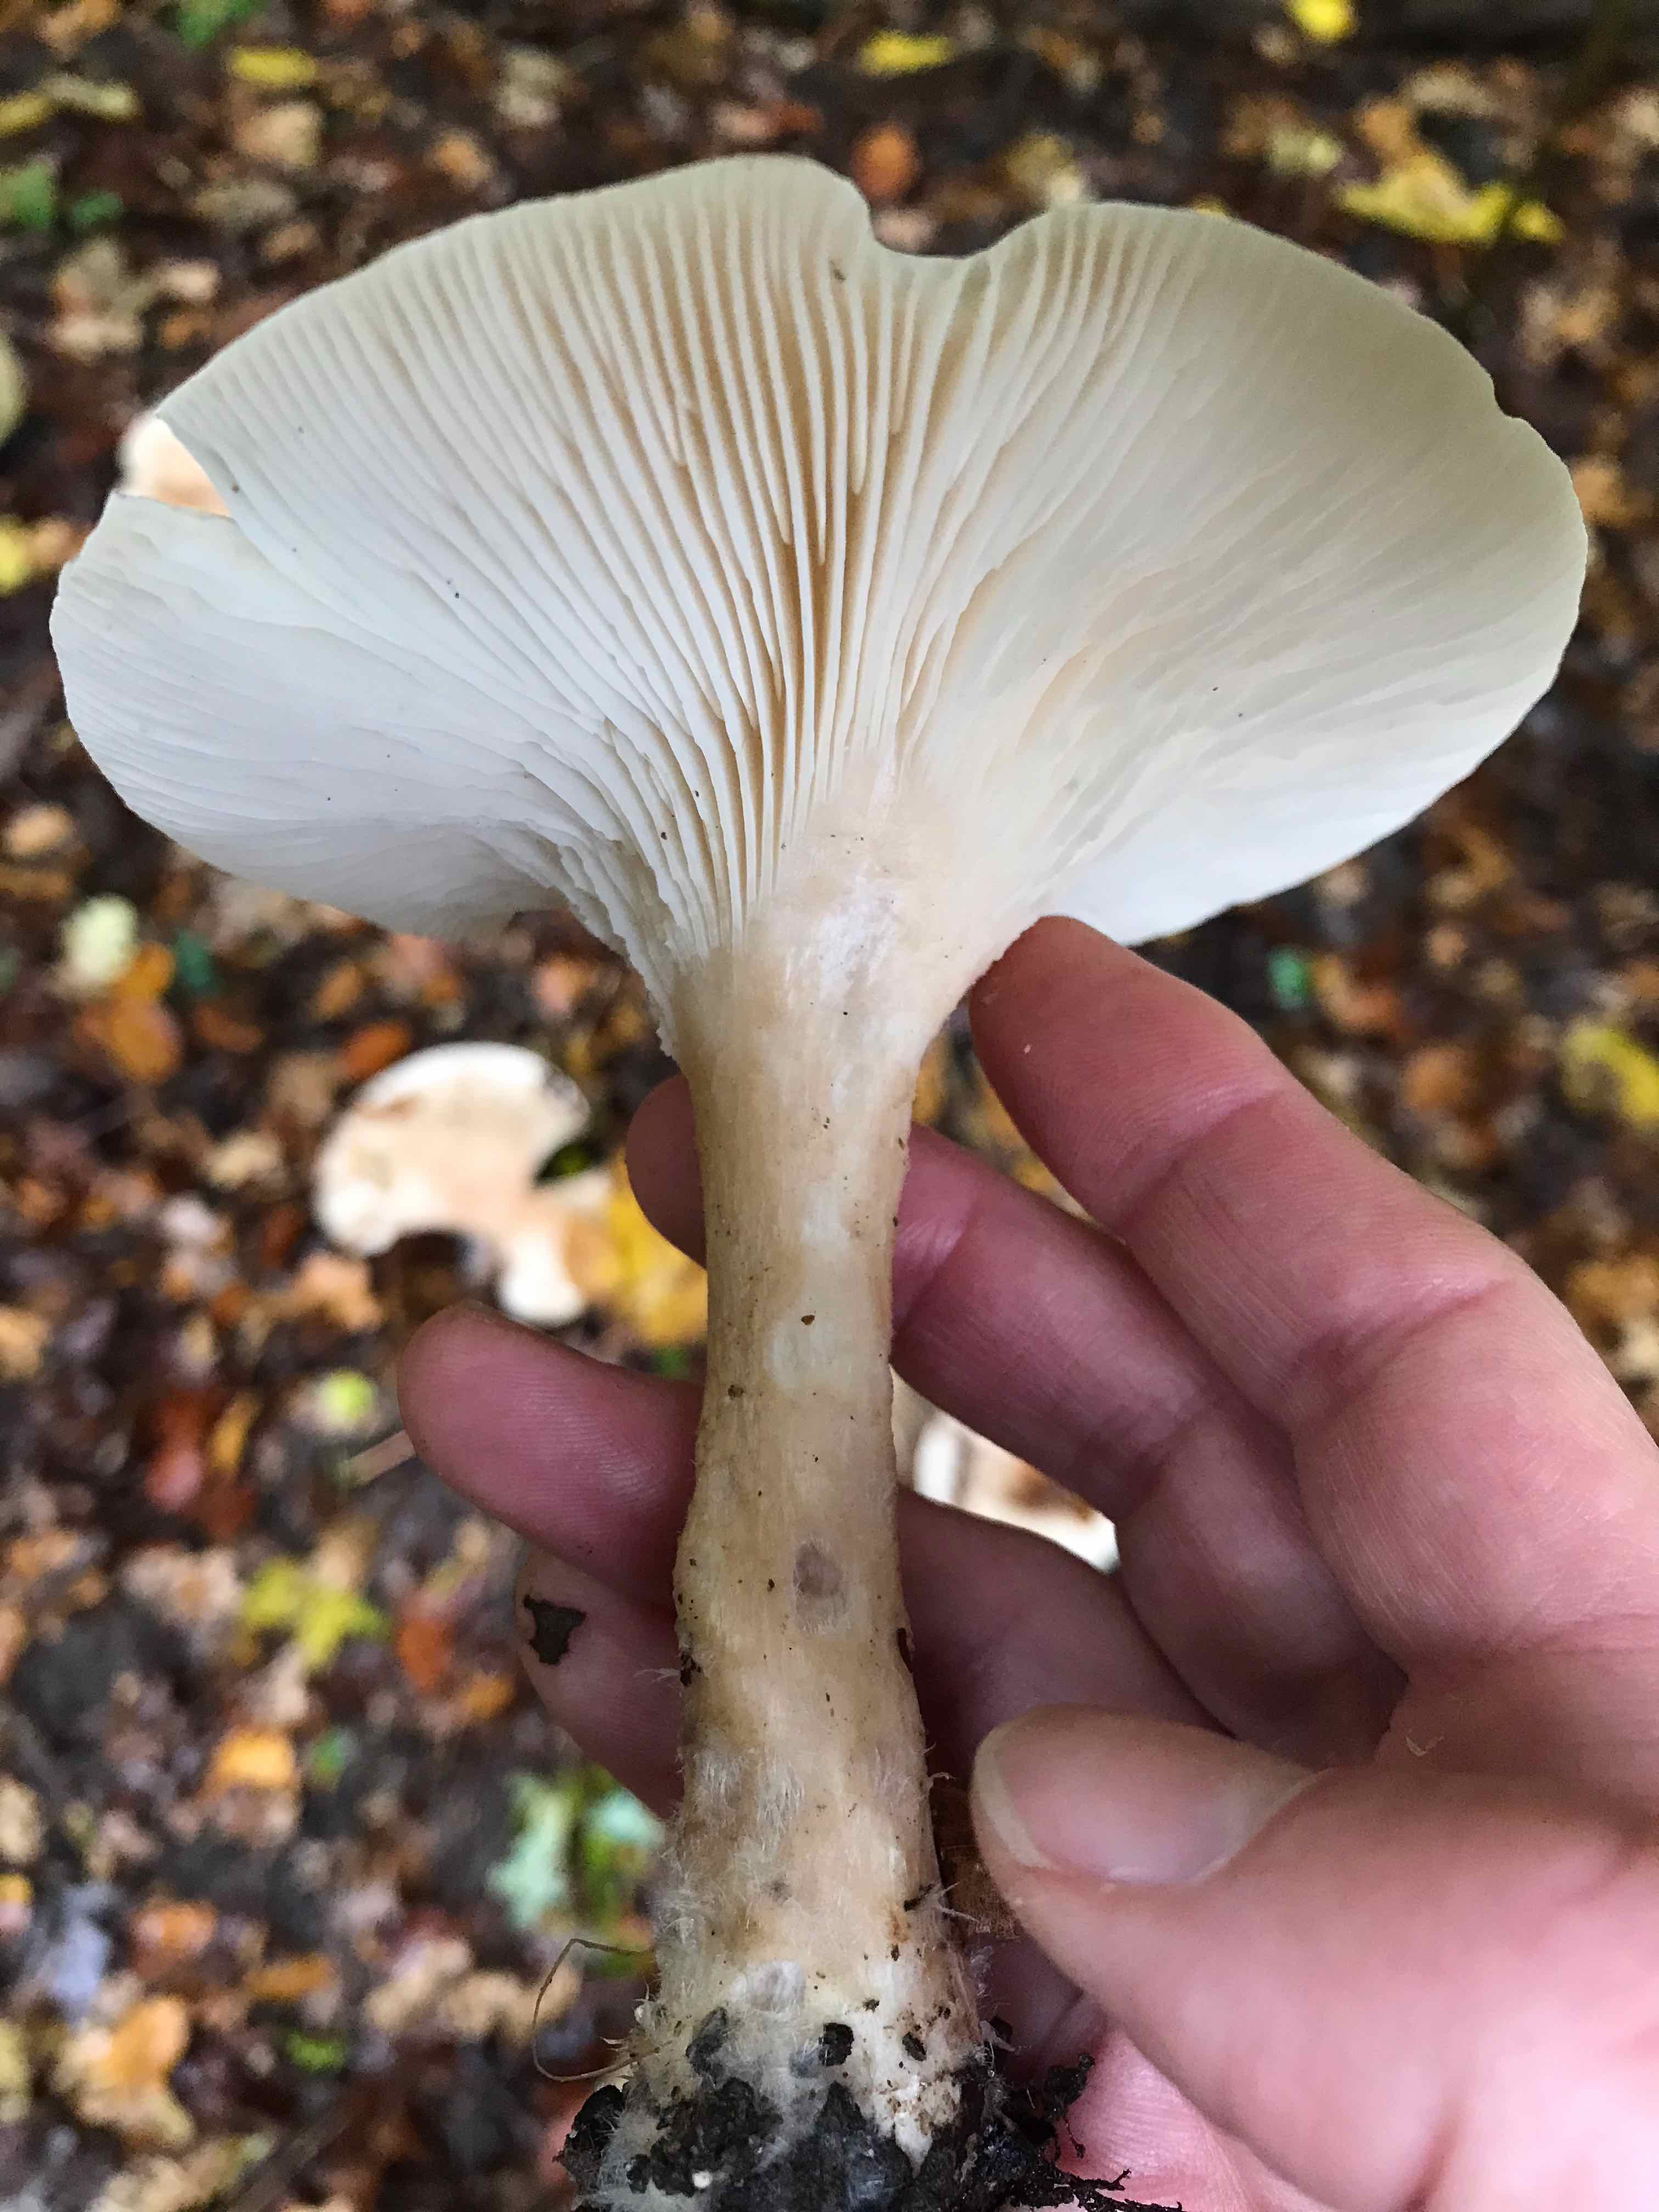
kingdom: Fungi
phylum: Basidiomycota
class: Agaricomycetes
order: Agaricales
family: Hygrophoraceae
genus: Ampulloclitocybe
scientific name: Ampulloclitocybe clavipes
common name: køllefod
